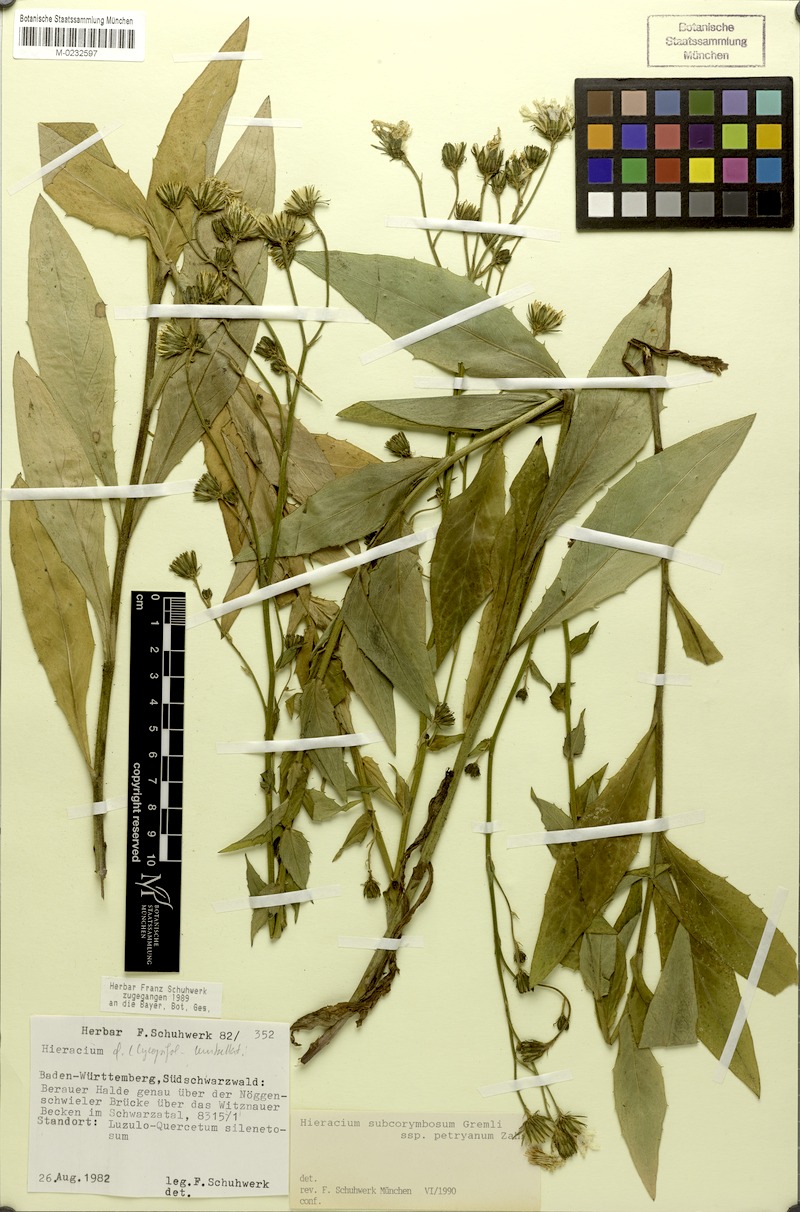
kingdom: Plantae
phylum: Tracheophyta
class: Magnoliopsida
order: Asterales
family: Asteraceae
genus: Hieracium
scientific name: Hieracium
